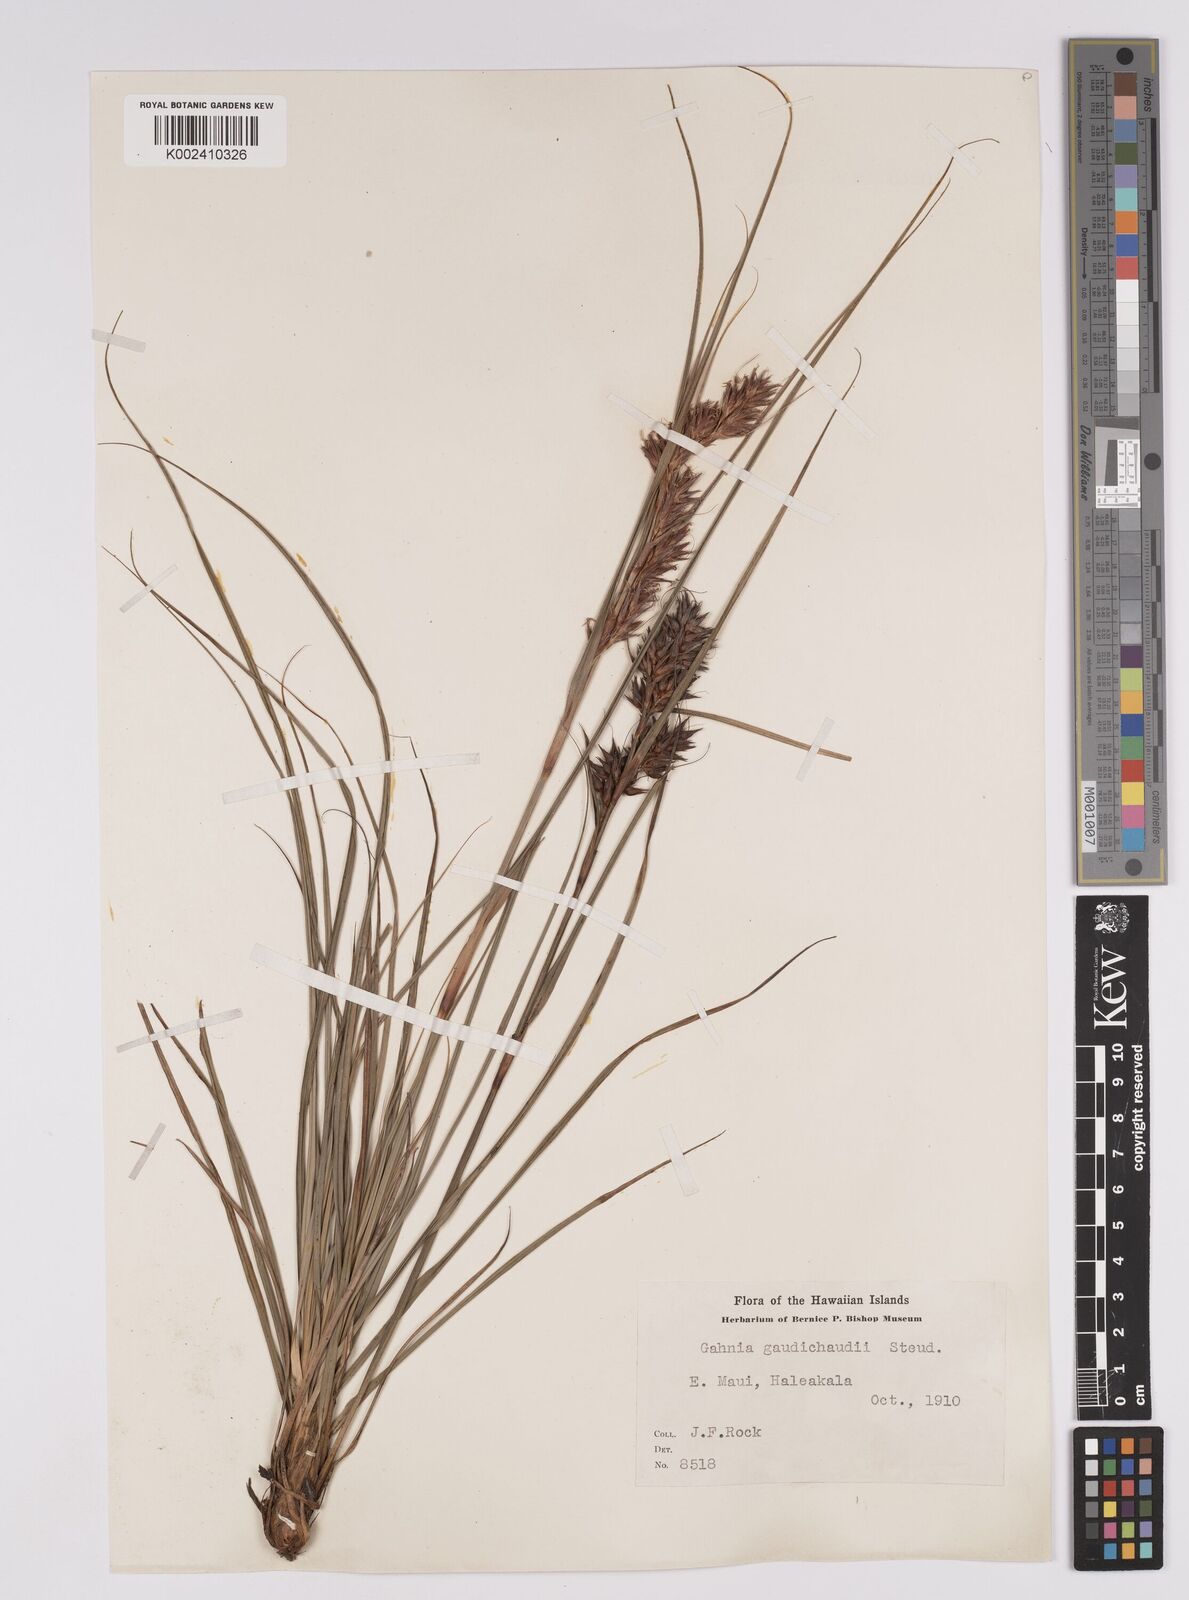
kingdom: Plantae
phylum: Tracheophyta
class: Liliopsida
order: Poales
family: Cyperaceae
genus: Morelotia
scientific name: Morelotia gahniiformis
